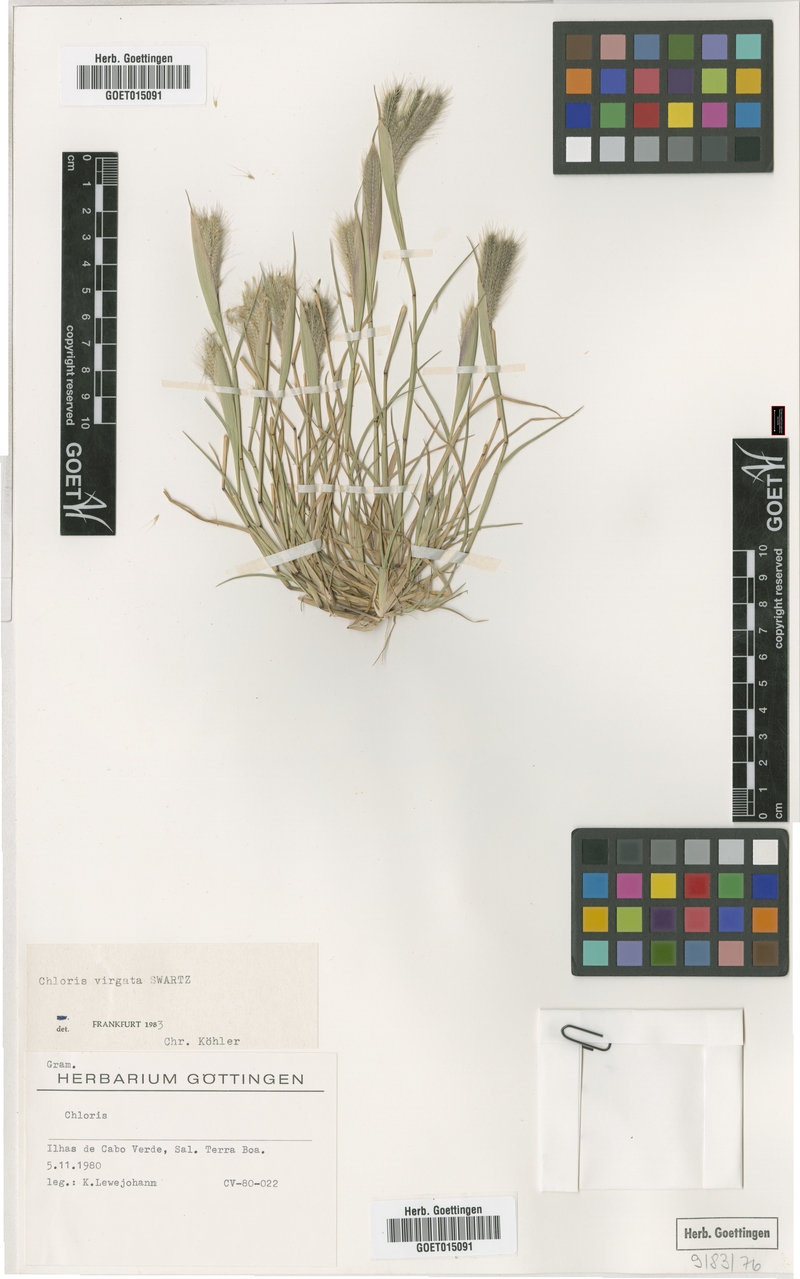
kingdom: Plantae
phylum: Tracheophyta
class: Liliopsida
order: Poales
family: Poaceae
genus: Chloris
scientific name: Chloris virgata
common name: Feathery rhodes-grass
